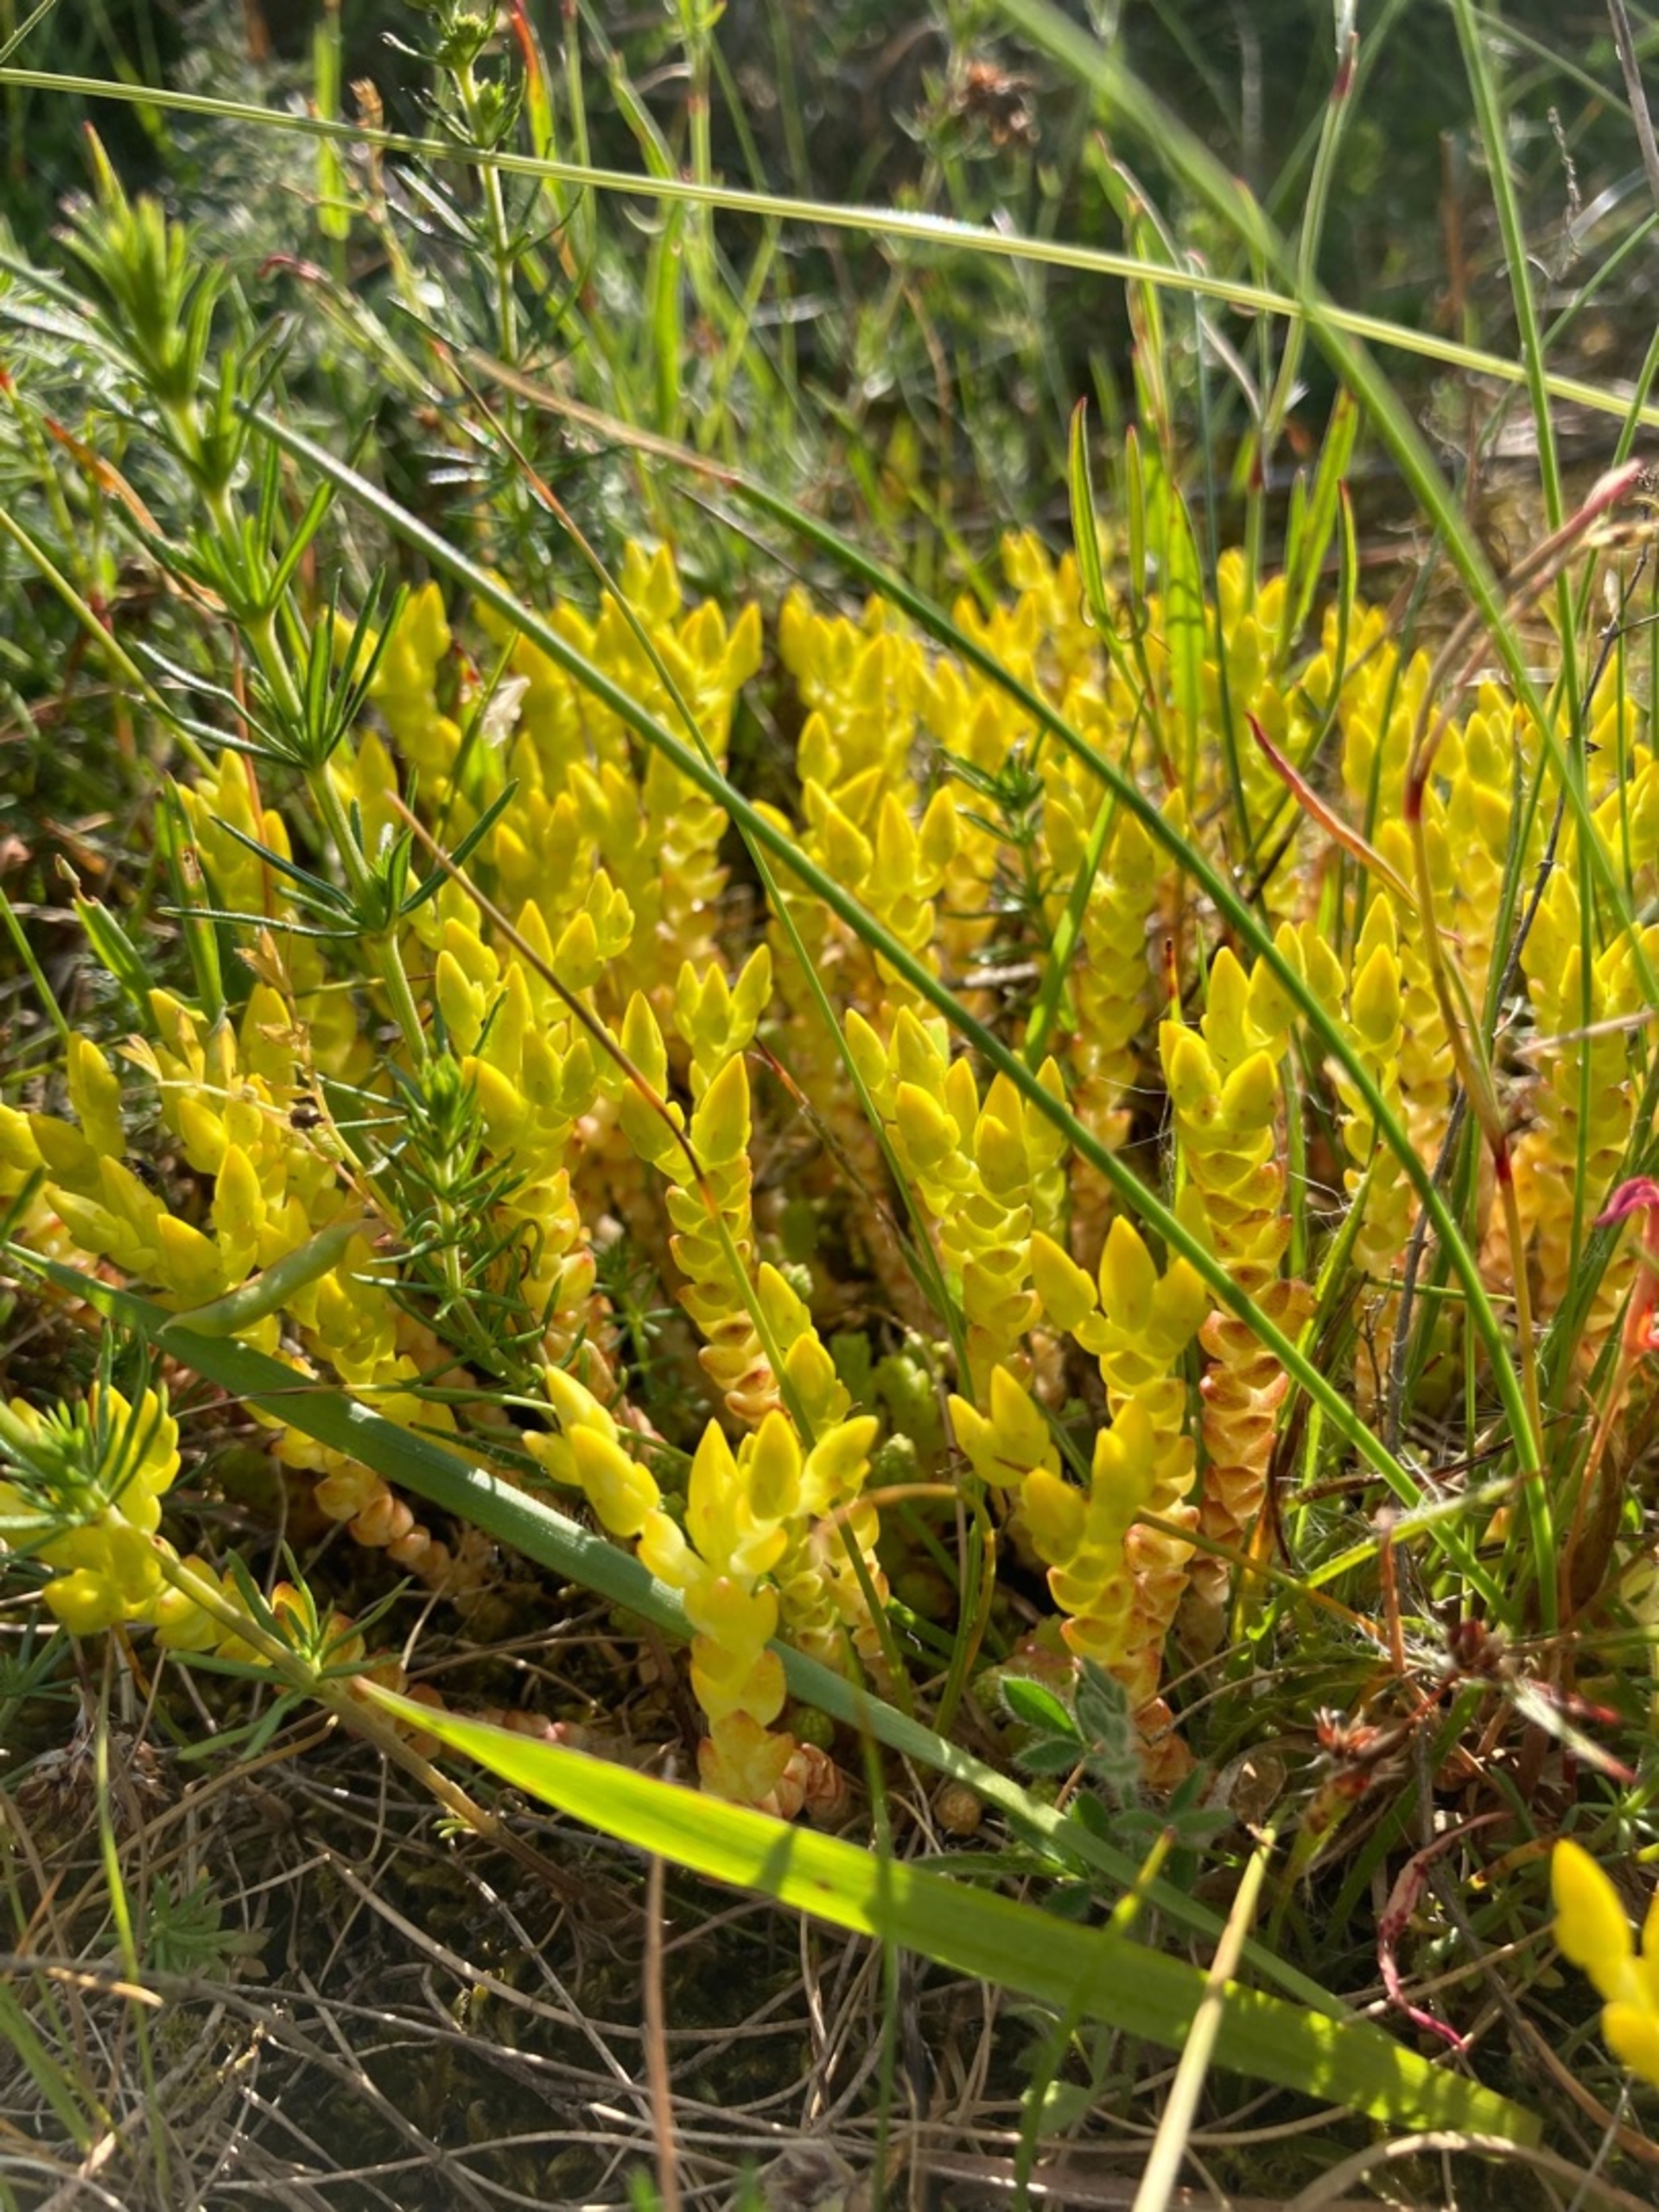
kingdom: Plantae
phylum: Tracheophyta
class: Magnoliopsida
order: Saxifragales
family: Crassulaceae
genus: Sedum
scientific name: Sedum acre
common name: Bidende stenurt
